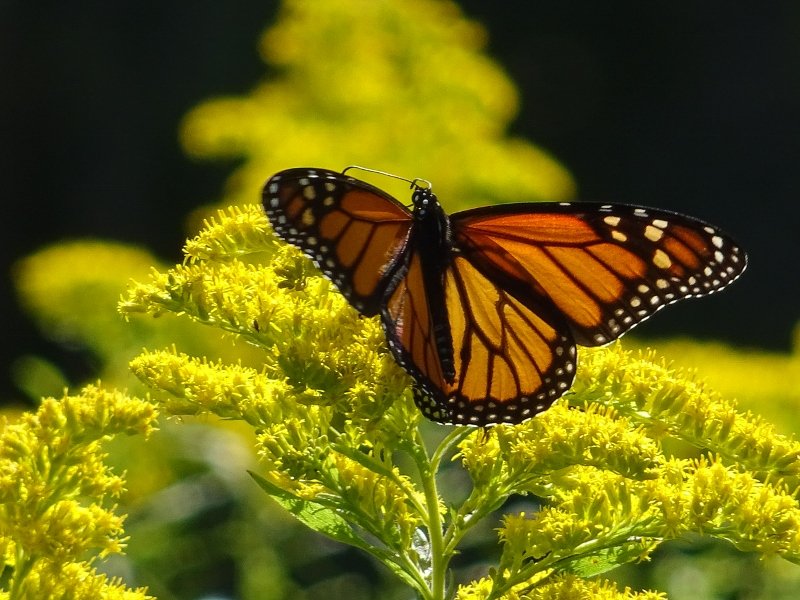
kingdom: Animalia
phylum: Arthropoda
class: Insecta
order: Lepidoptera
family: Nymphalidae
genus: Danaus
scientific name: Danaus plexippus
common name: Monarch
